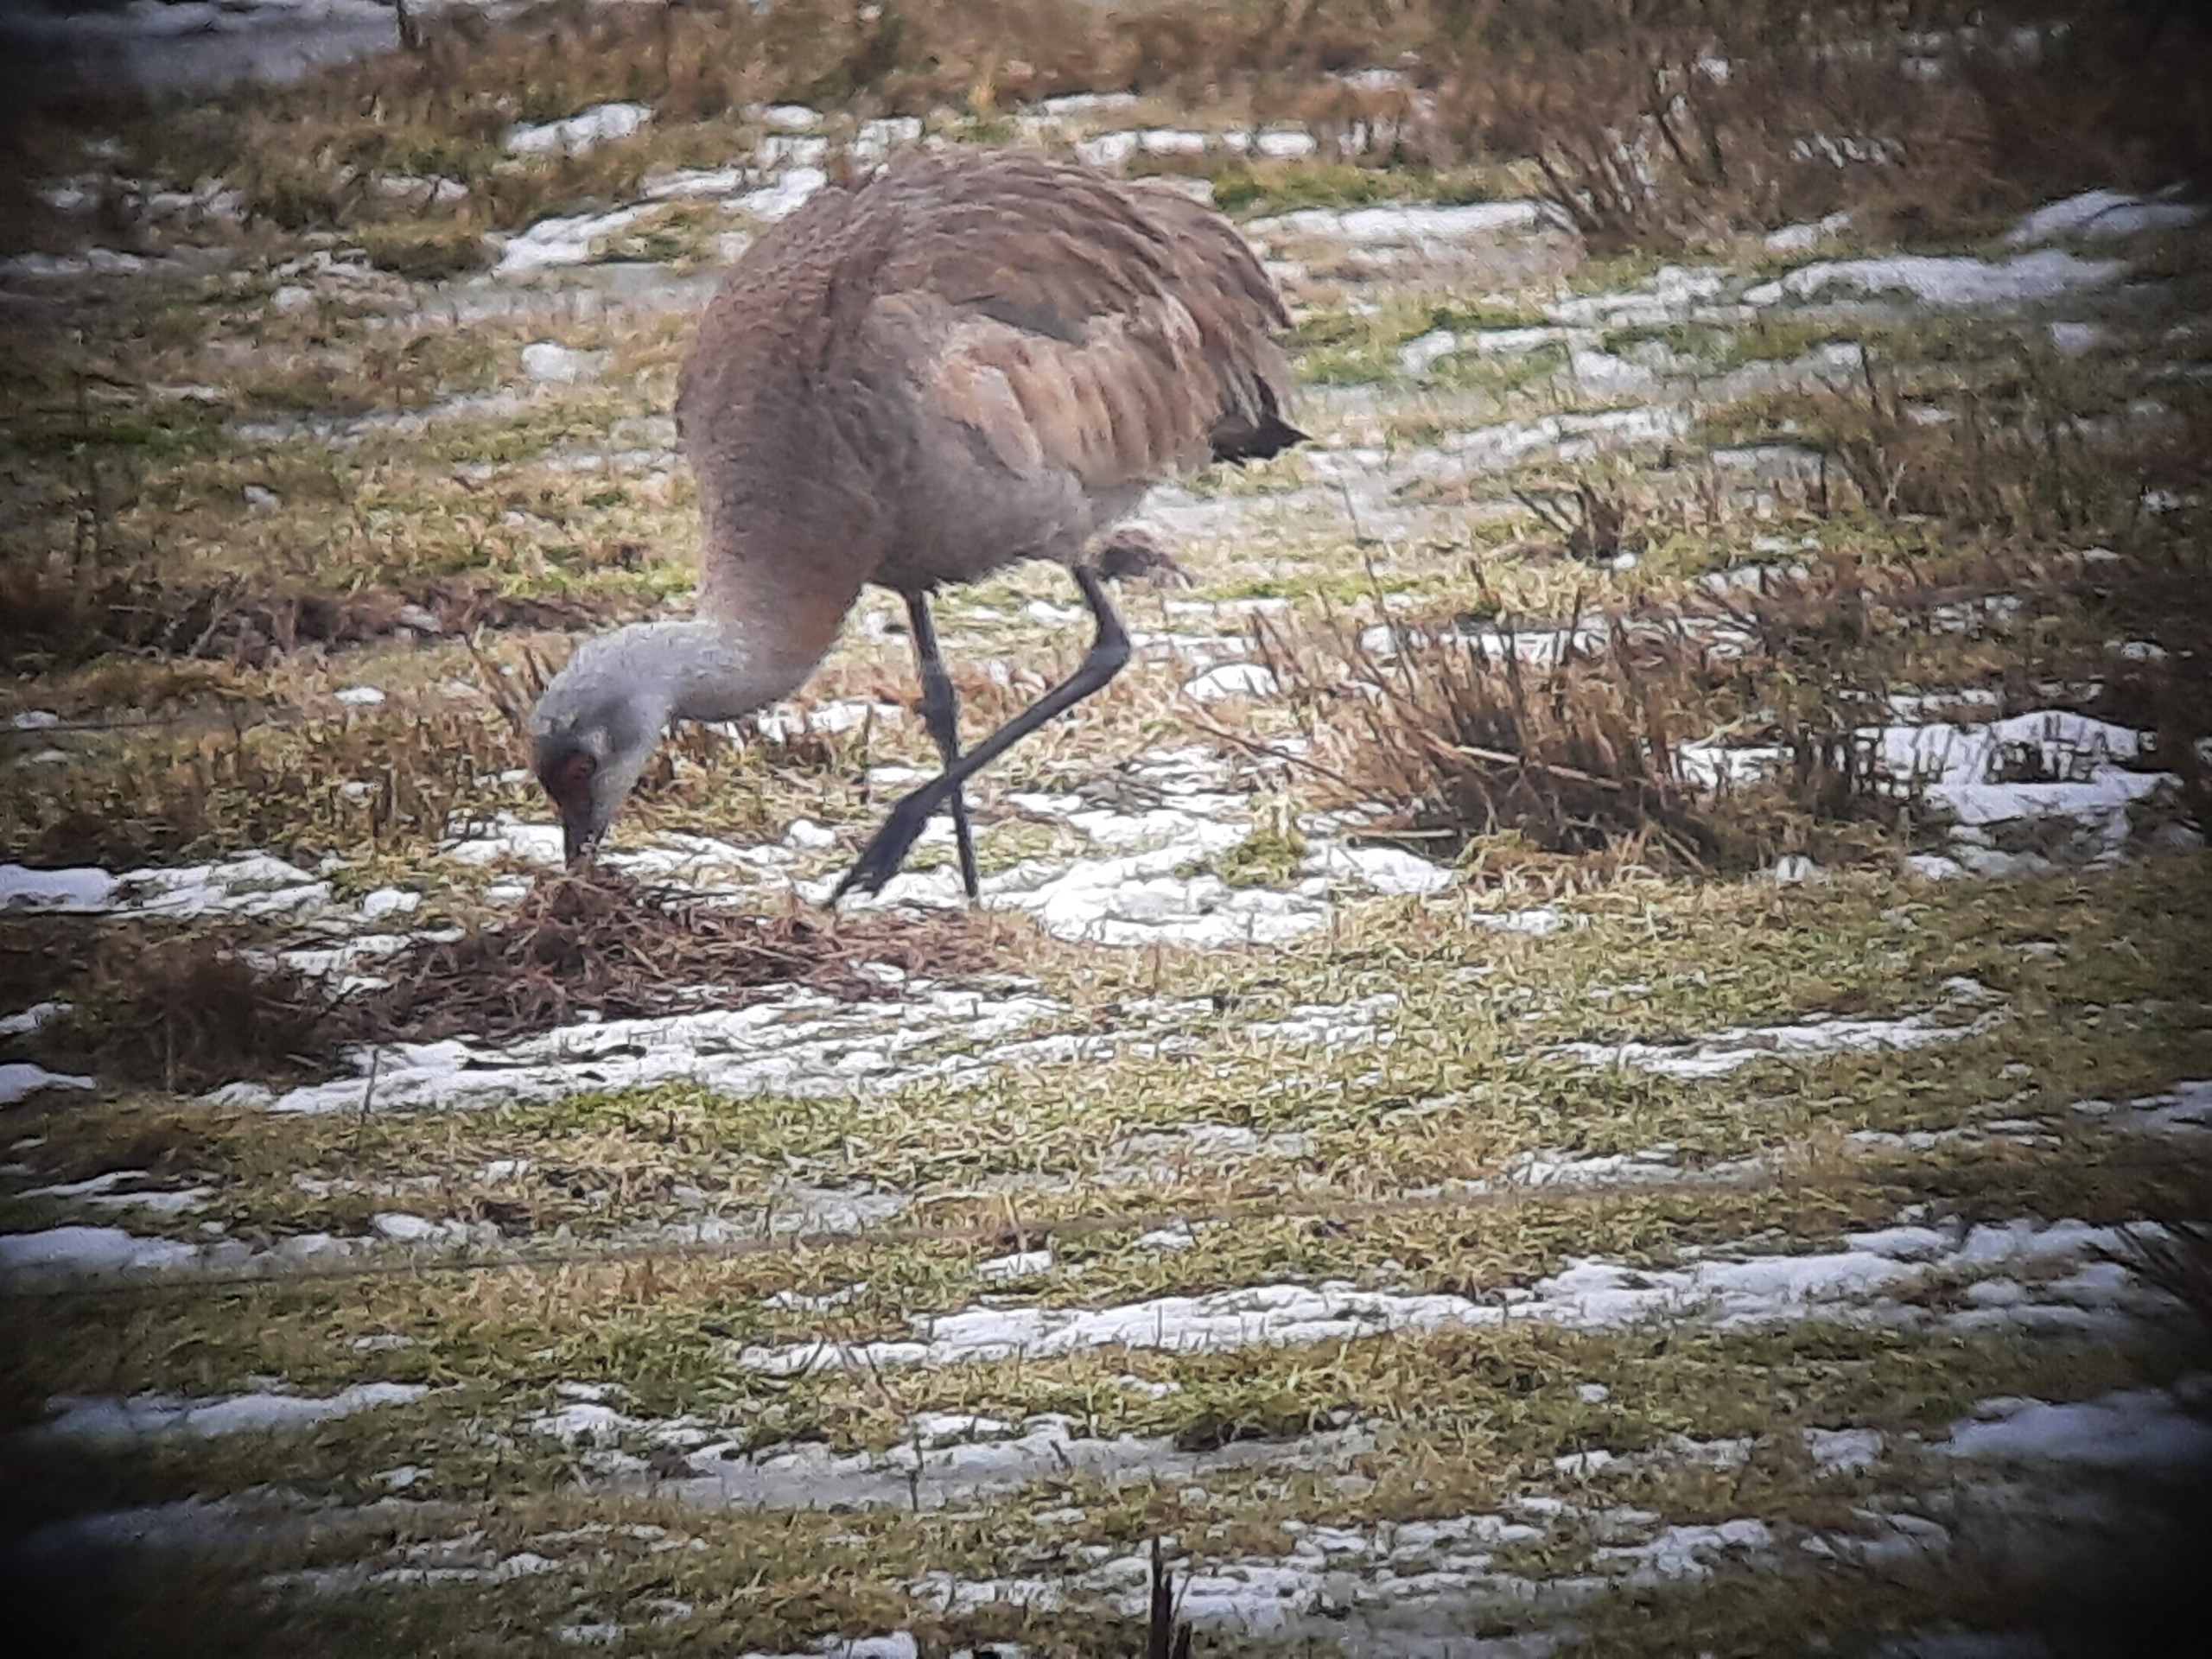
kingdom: Animalia
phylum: Chordata
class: Aves
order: Gruiformes
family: Gruidae
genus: Grus
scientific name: Grus canadensis
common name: Prærietrane
